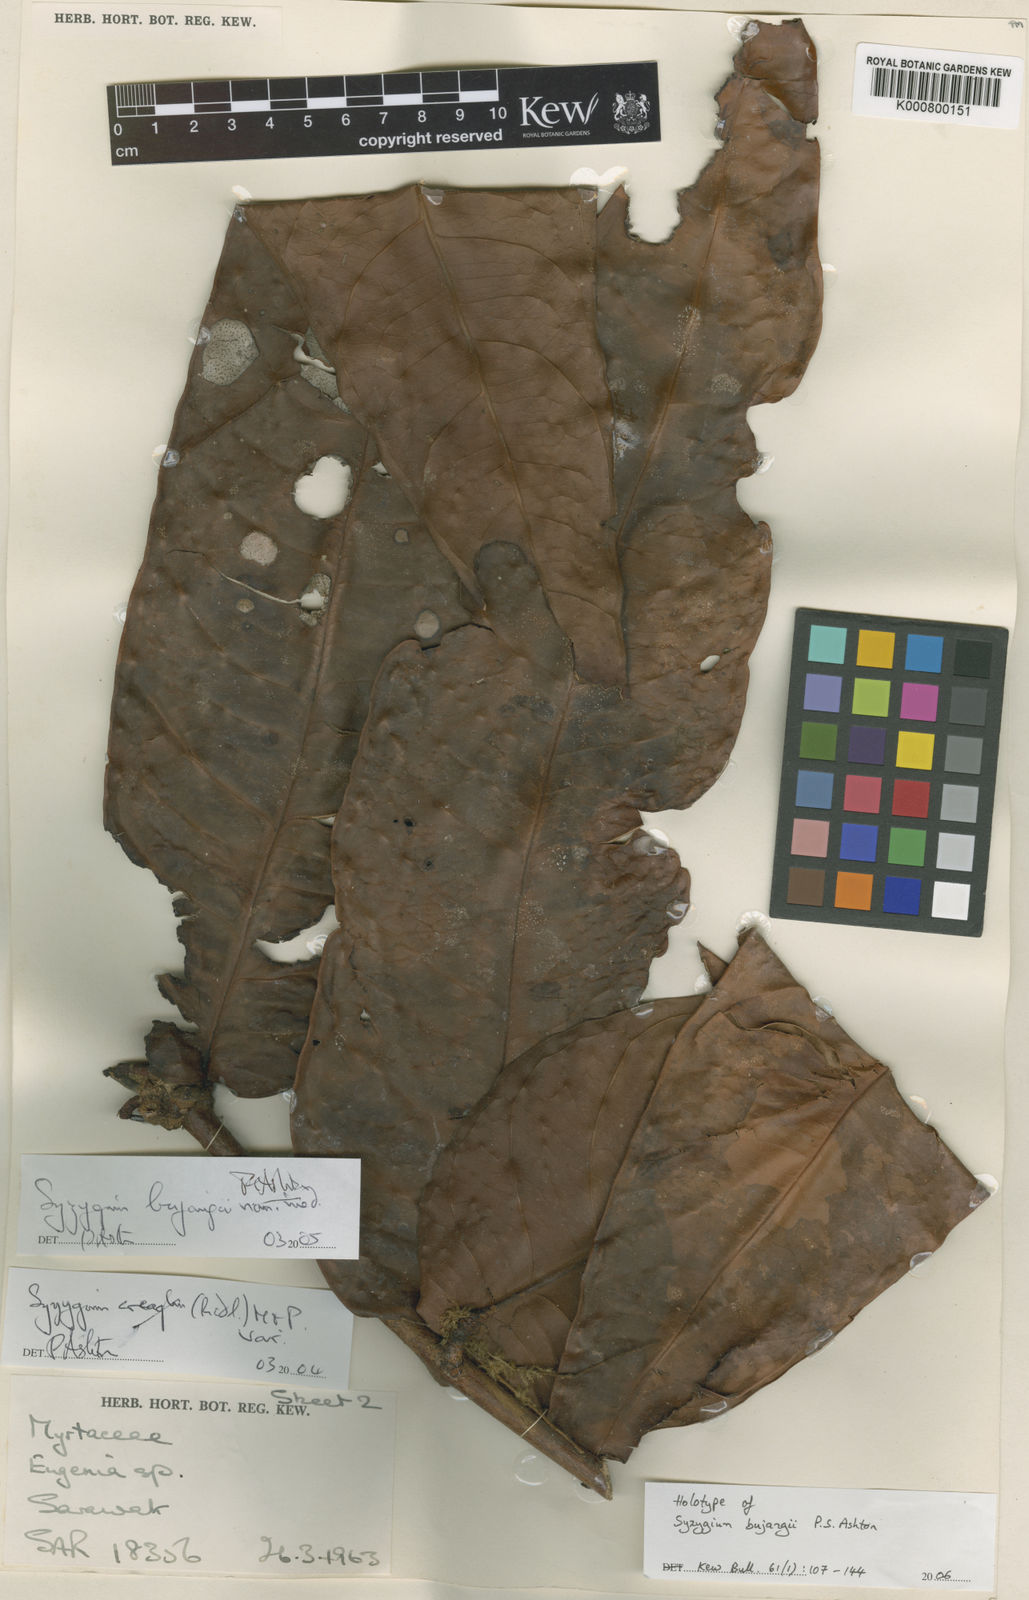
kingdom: Plantae
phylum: Tracheophyta
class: Magnoliopsida
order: Myrtales
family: Myrtaceae
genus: Syzygium
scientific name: Syzygium bujangii
